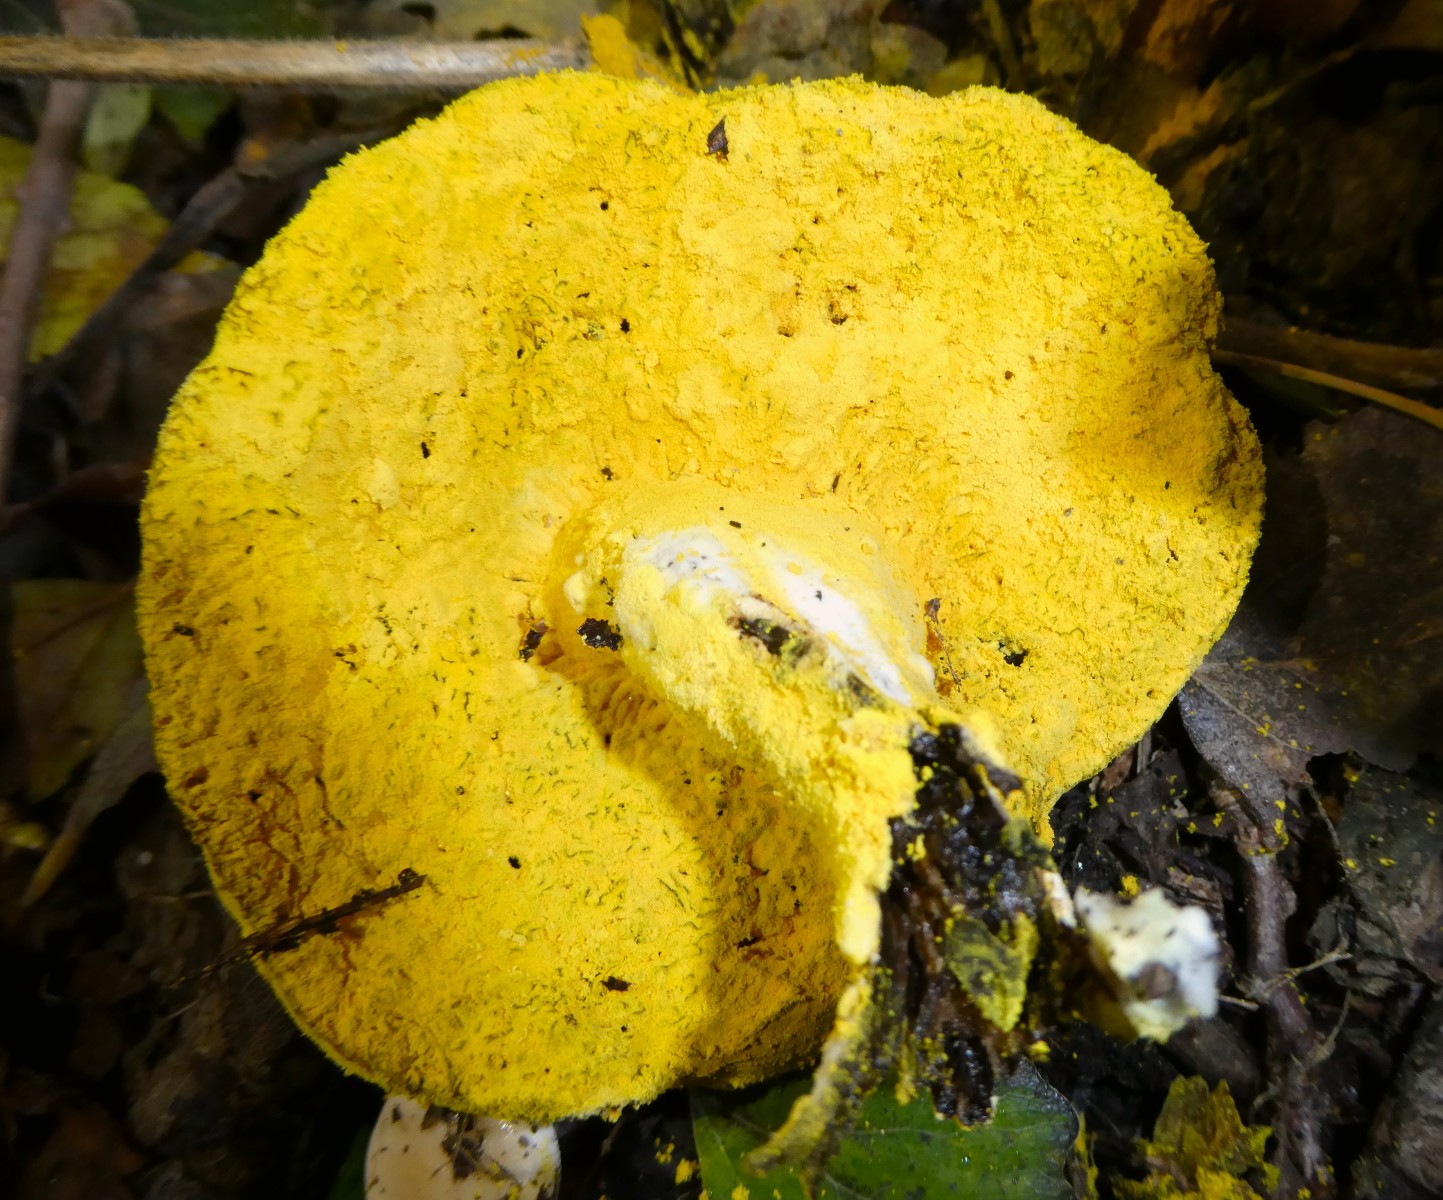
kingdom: Fungi
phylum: Ascomycota
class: Sordariomycetes
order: Hypocreales
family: Hypocreaceae
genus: Hypomyces
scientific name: Hypomyces microspermus
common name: dværgrørhat-snylteskorpe
